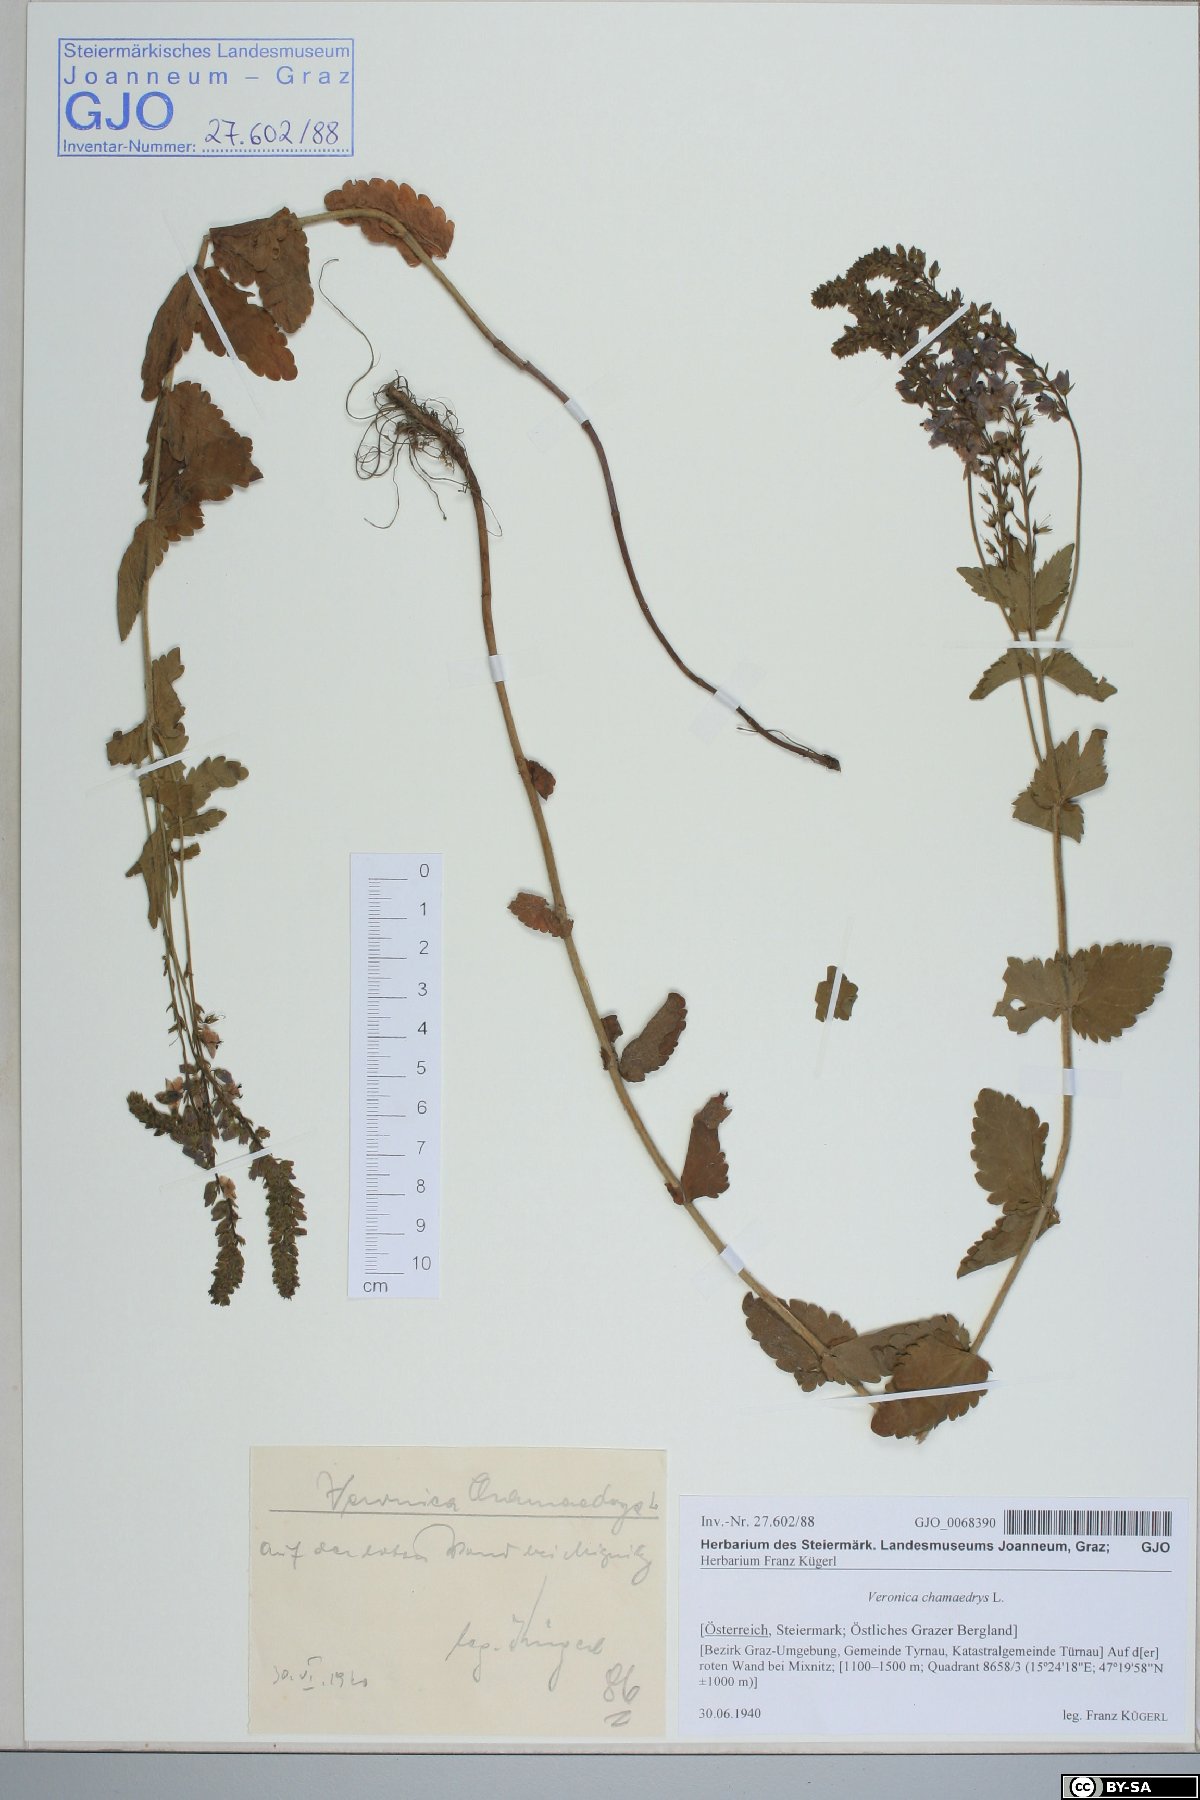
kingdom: Plantae
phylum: Tracheophyta
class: Magnoliopsida
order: Lamiales
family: Plantaginaceae
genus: Veronica
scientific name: Veronica chamaedrys
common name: Germander speedwell
